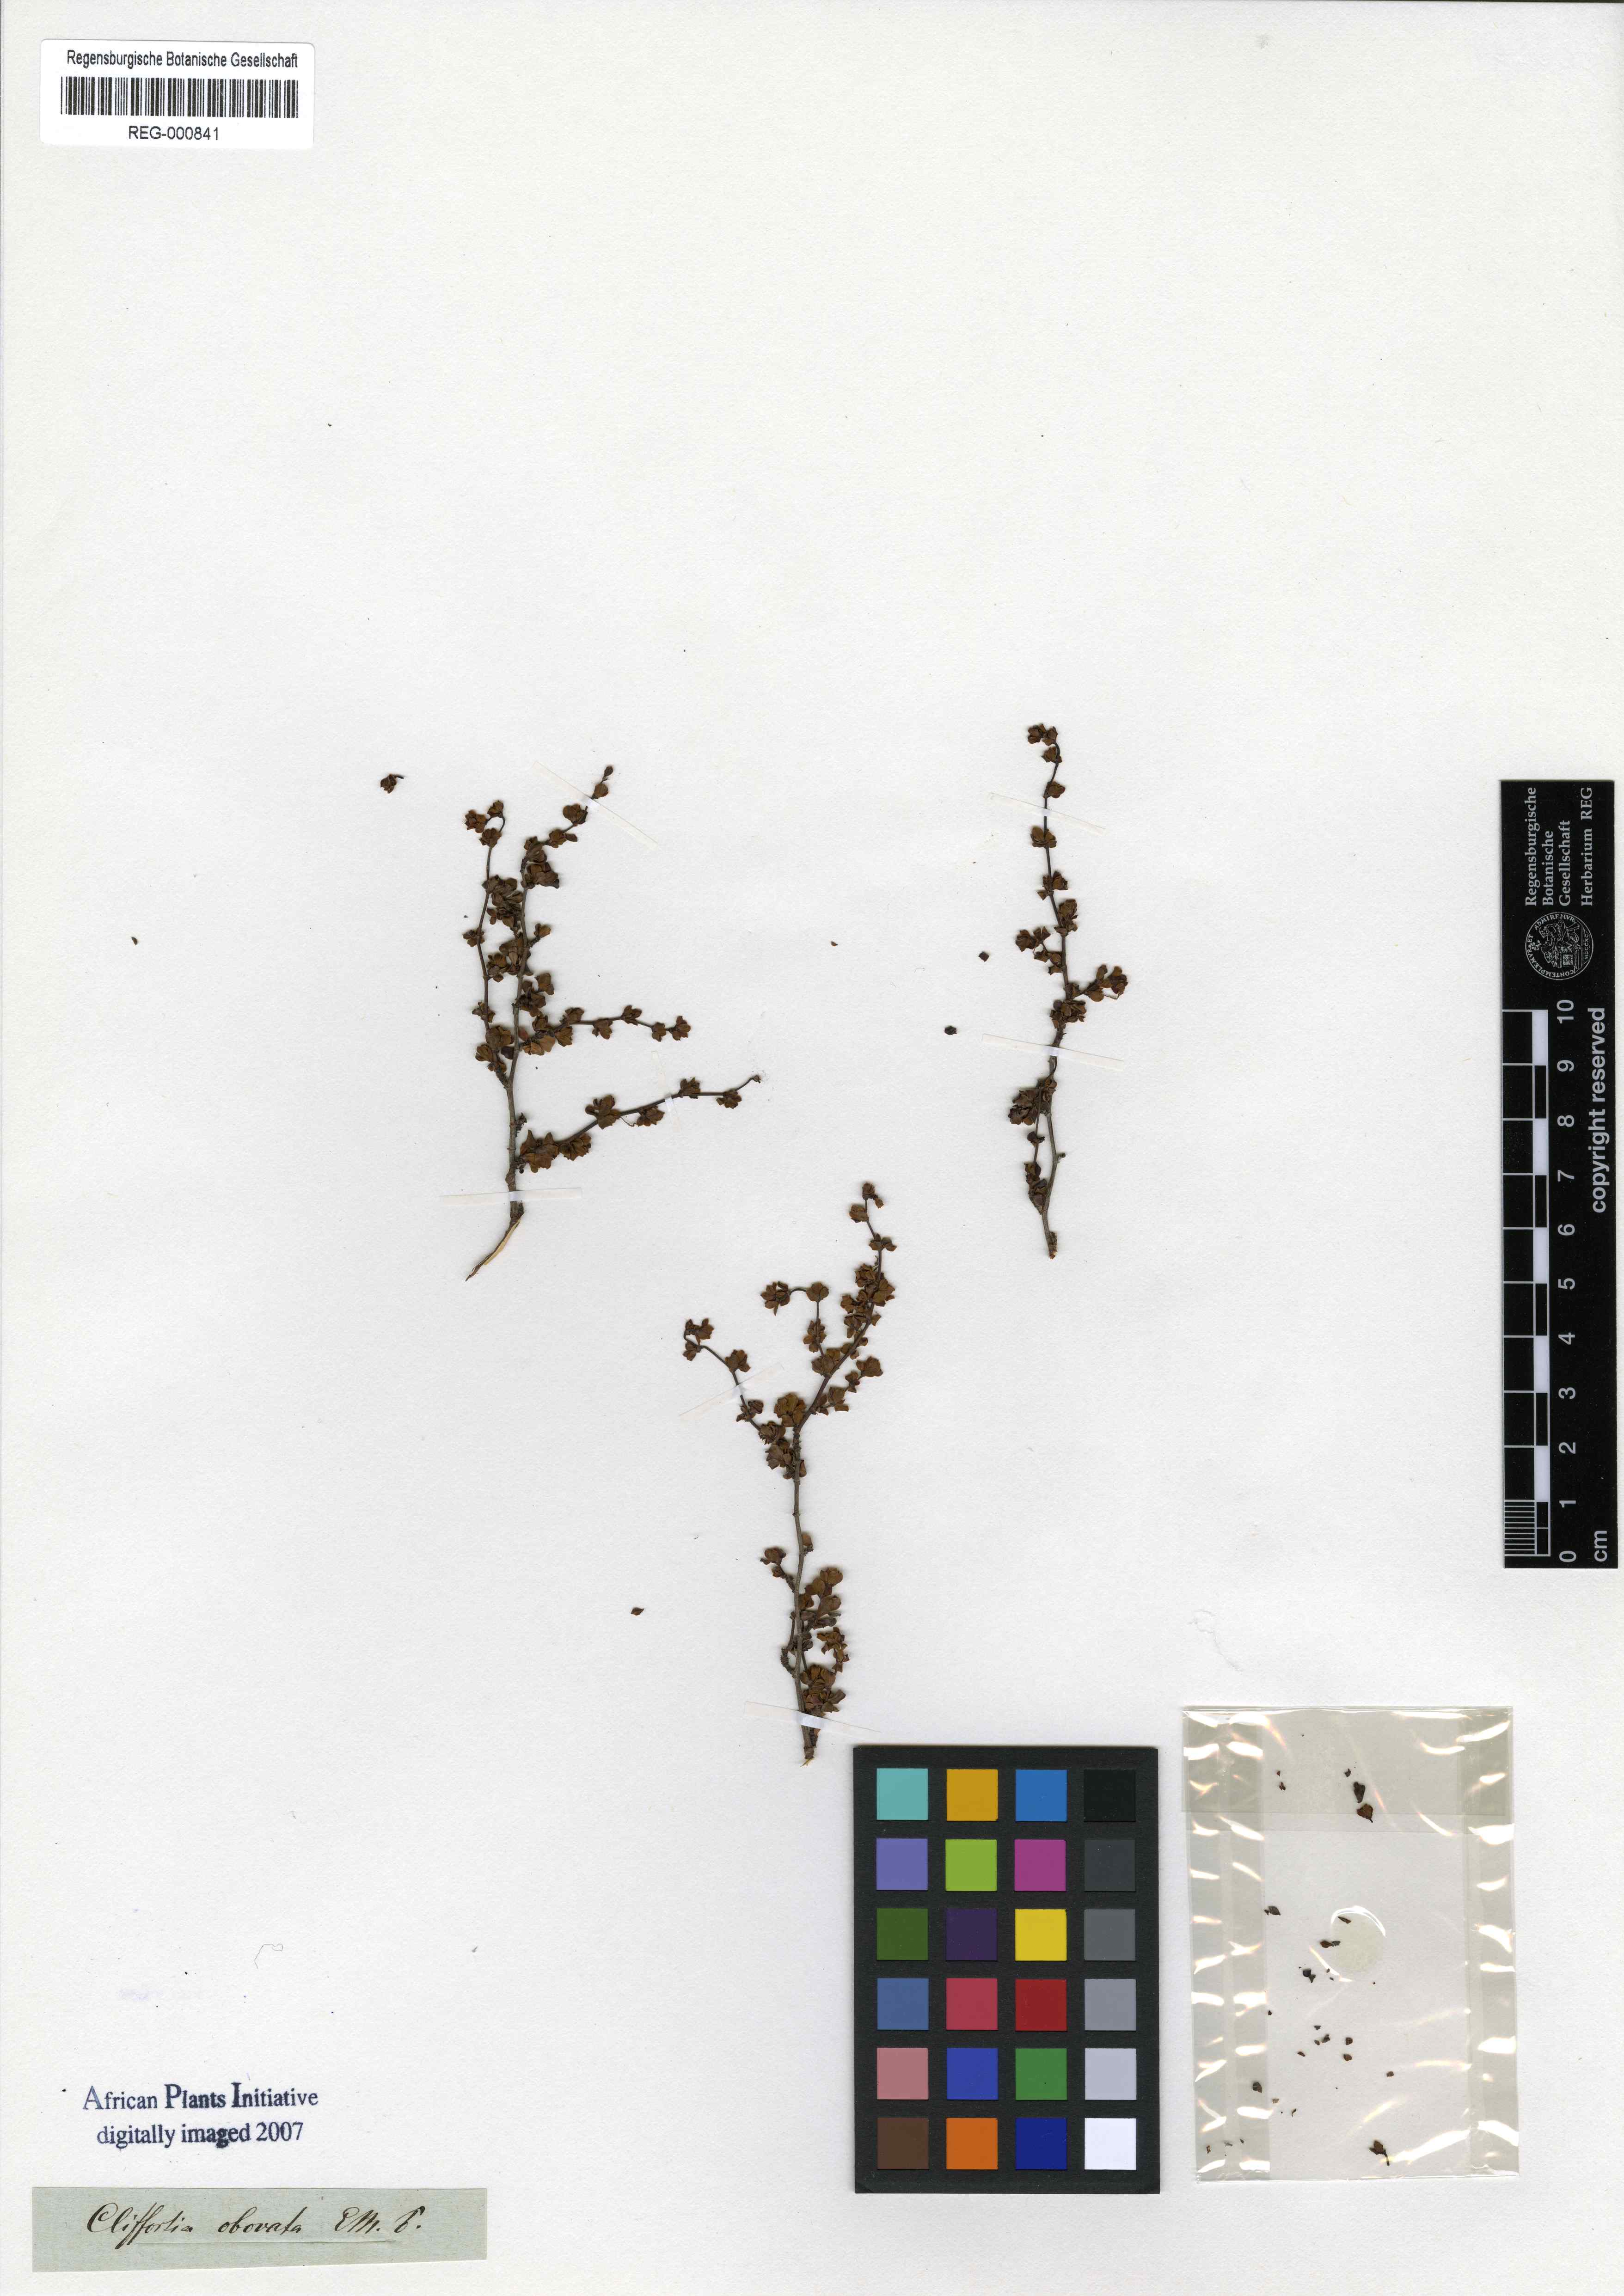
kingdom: Plantae
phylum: Tracheophyta
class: Magnoliopsida
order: Rosales
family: Rosaceae
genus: Cliffortia
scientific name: Cliffortia obovata
